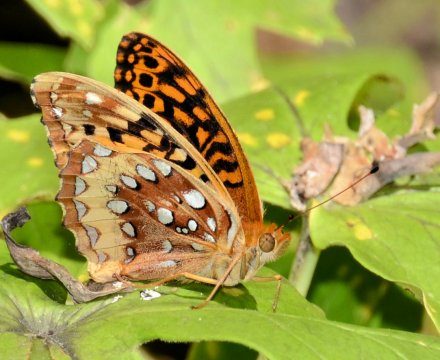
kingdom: Animalia
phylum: Arthropoda
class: Insecta
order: Lepidoptera
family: Nymphalidae
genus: Speyeria
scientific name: Speyeria cybele
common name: Great Spangled Fritillary
